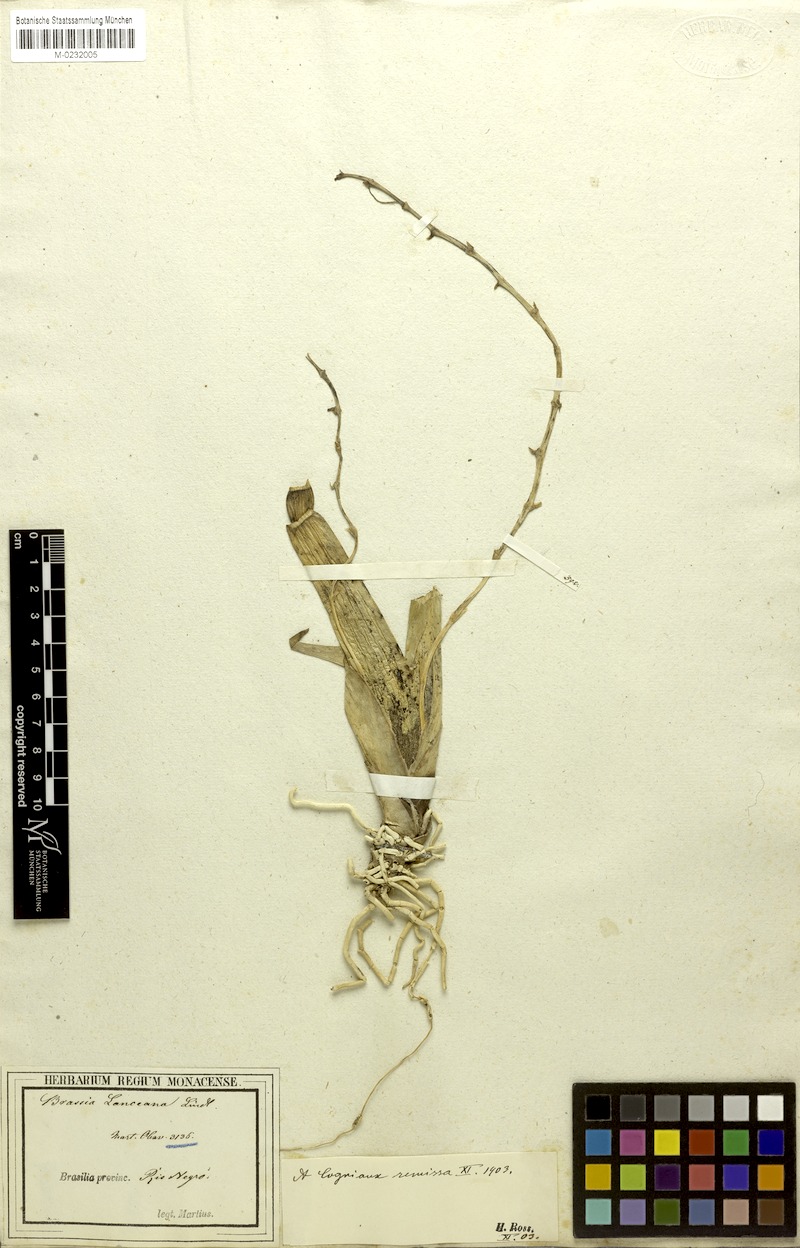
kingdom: Plantae
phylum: Tracheophyta
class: Liliopsida
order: Asparagales
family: Orchidaceae
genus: Brassia
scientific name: Brassia lanceana
